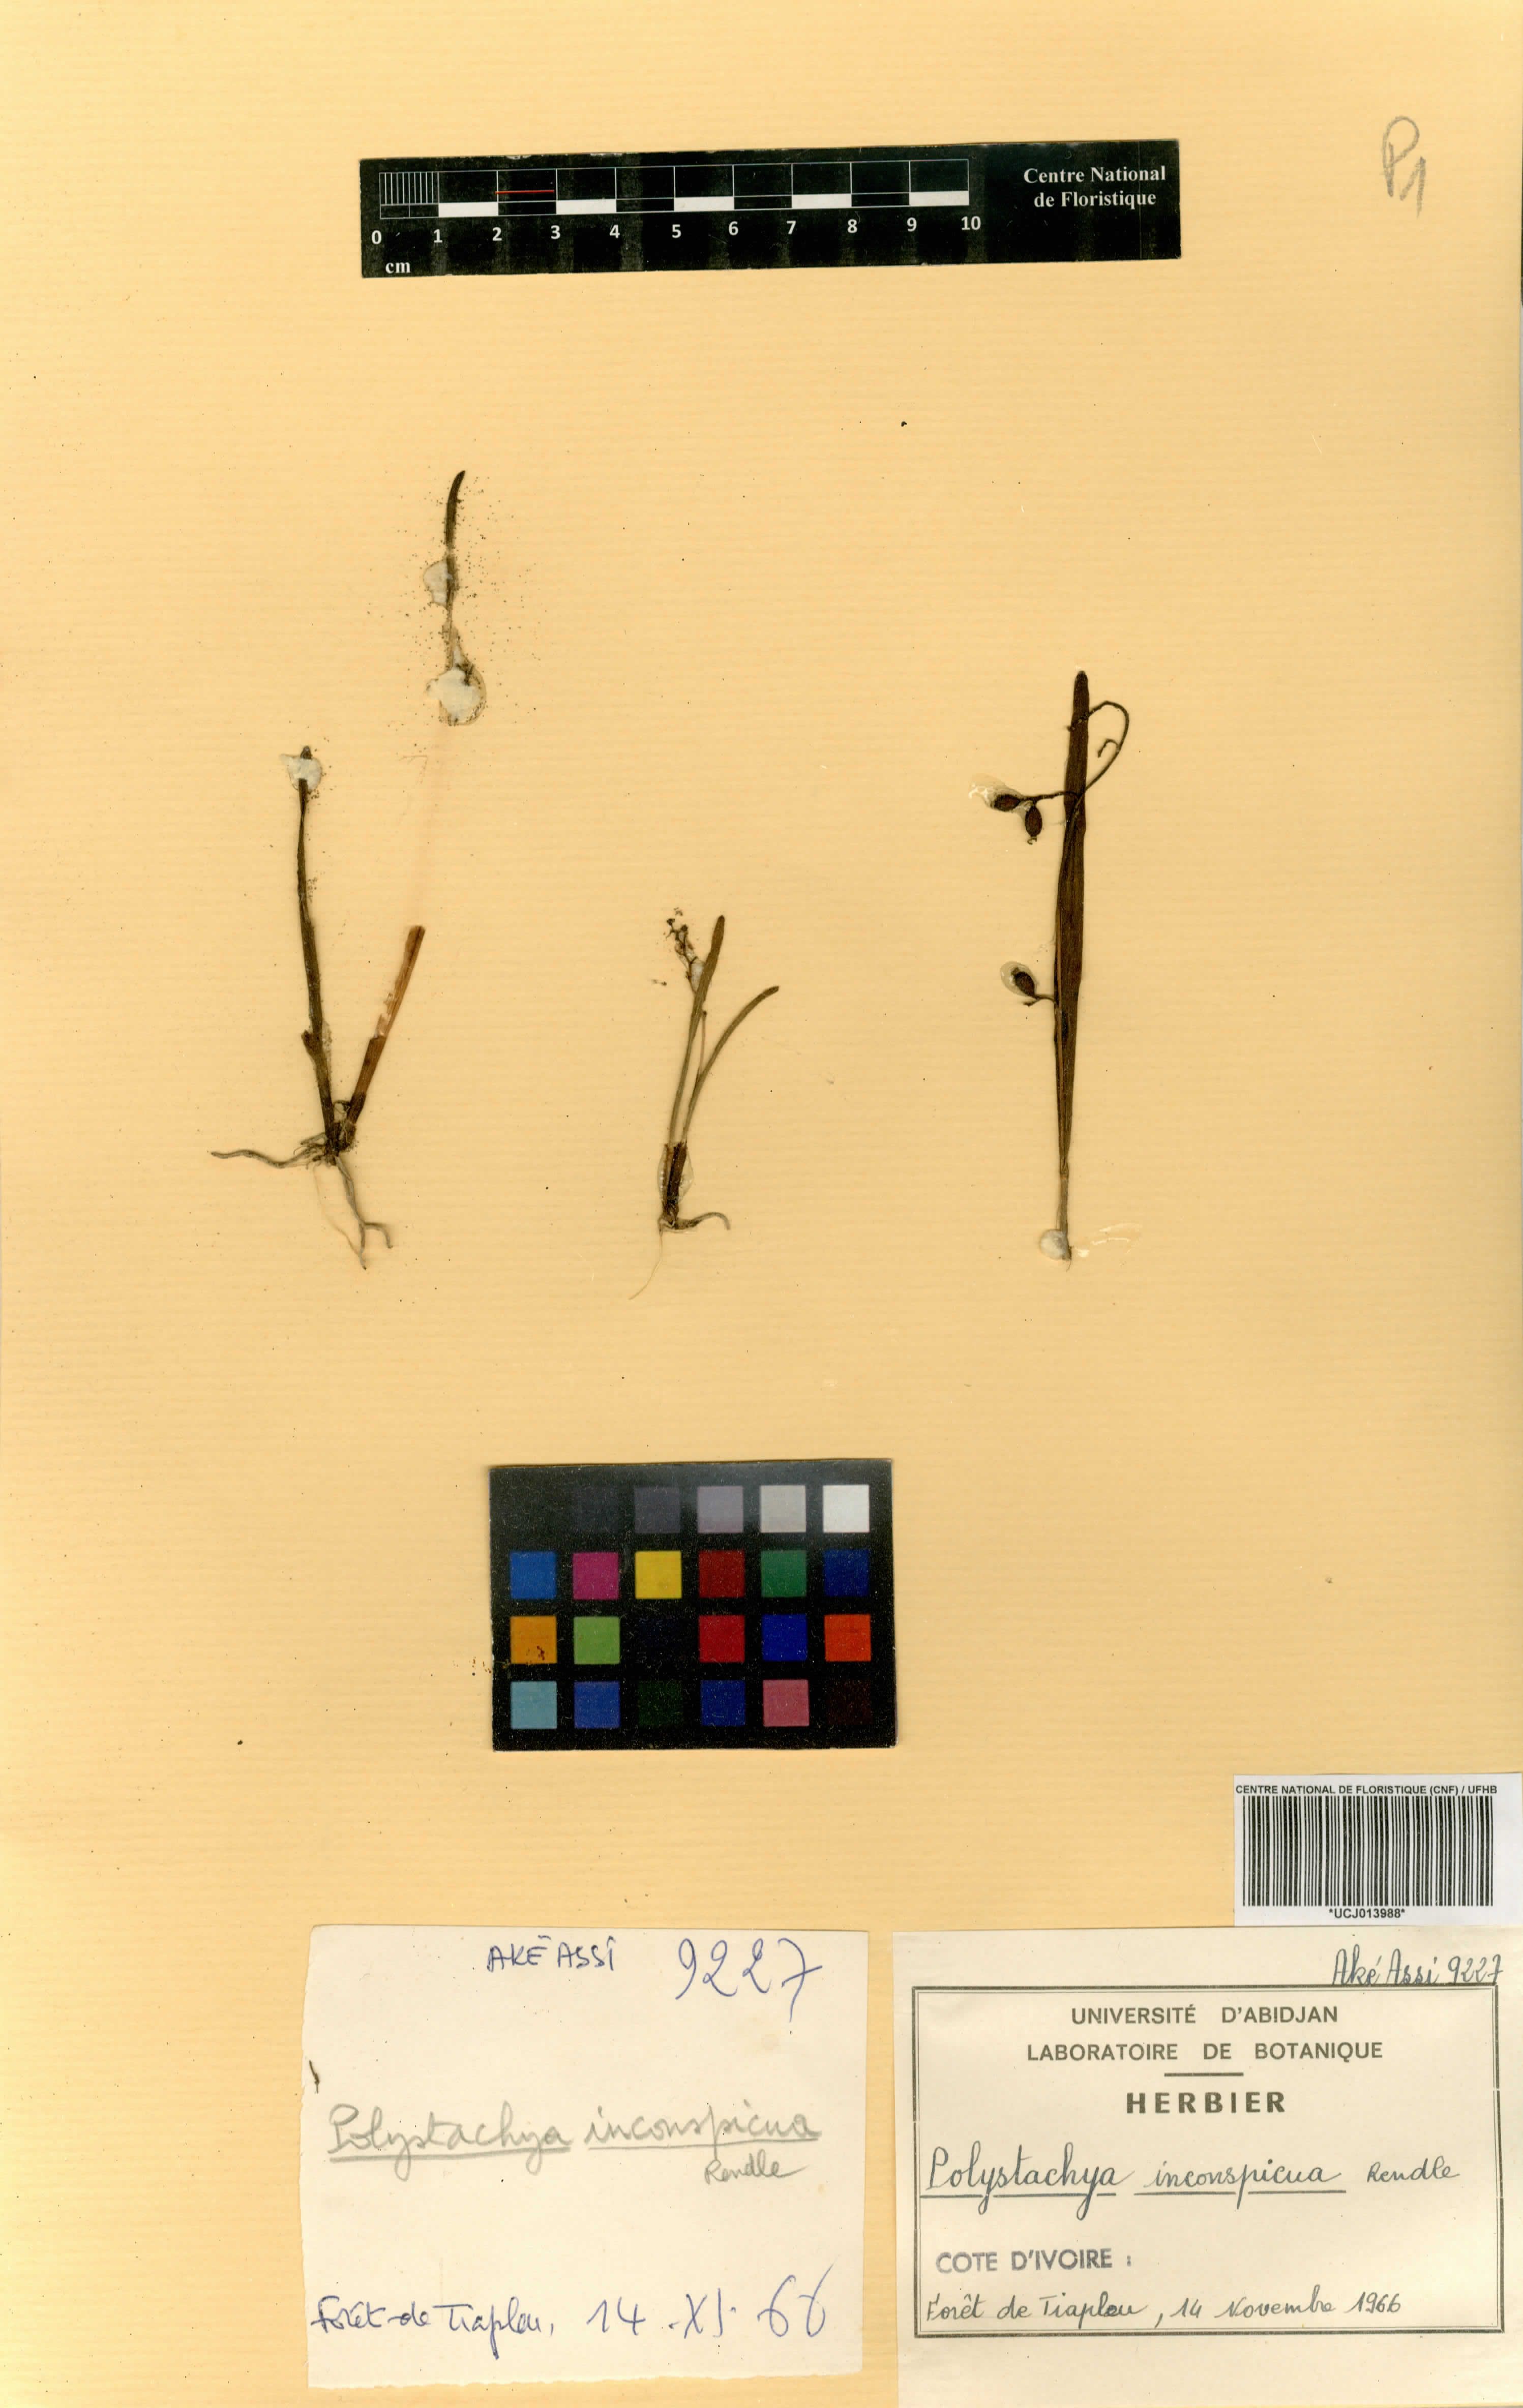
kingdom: Plantae
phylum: Tracheophyta
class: Liliopsida
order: Asparagales
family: Orchidaceae
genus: Polystachya
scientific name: Polystachya tenuissima
